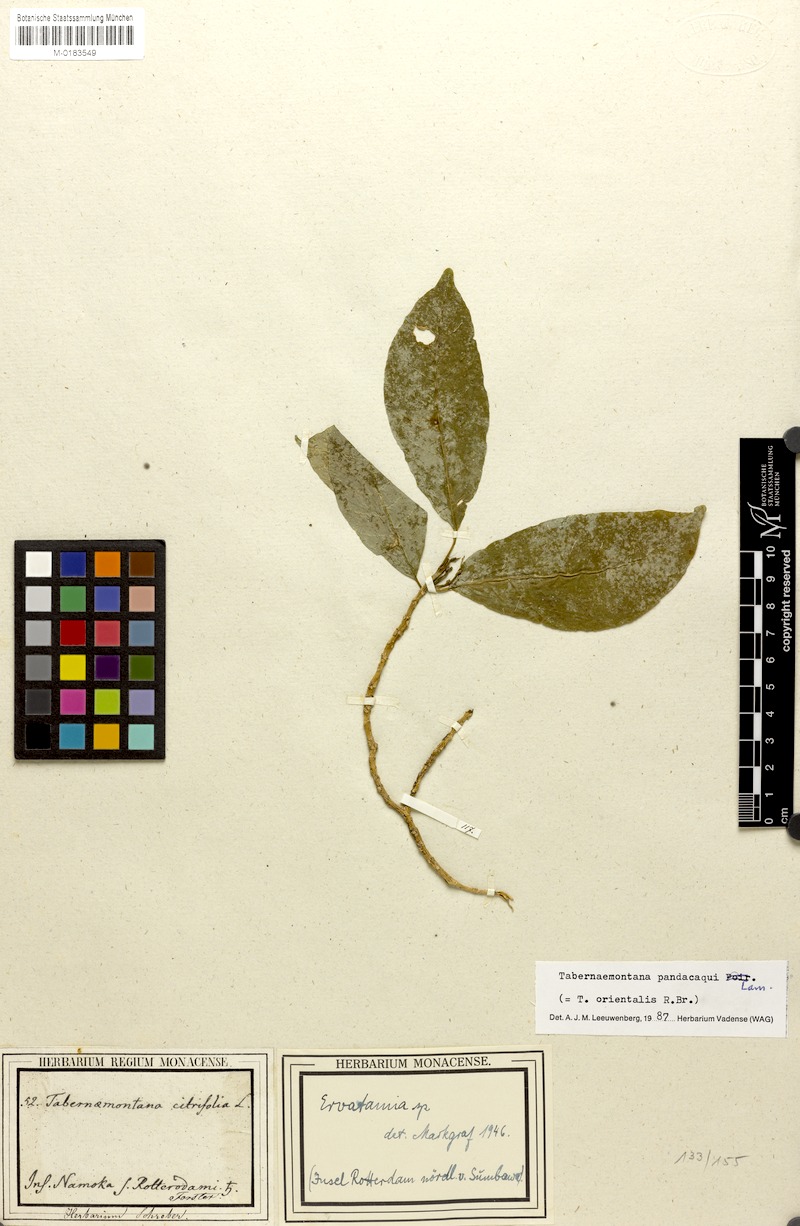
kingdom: Plantae
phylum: Tracheophyta
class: Magnoliopsida
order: Gentianales
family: Apocynaceae
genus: Tabernaemontana
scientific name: Tabernaemontana pandacaqui
